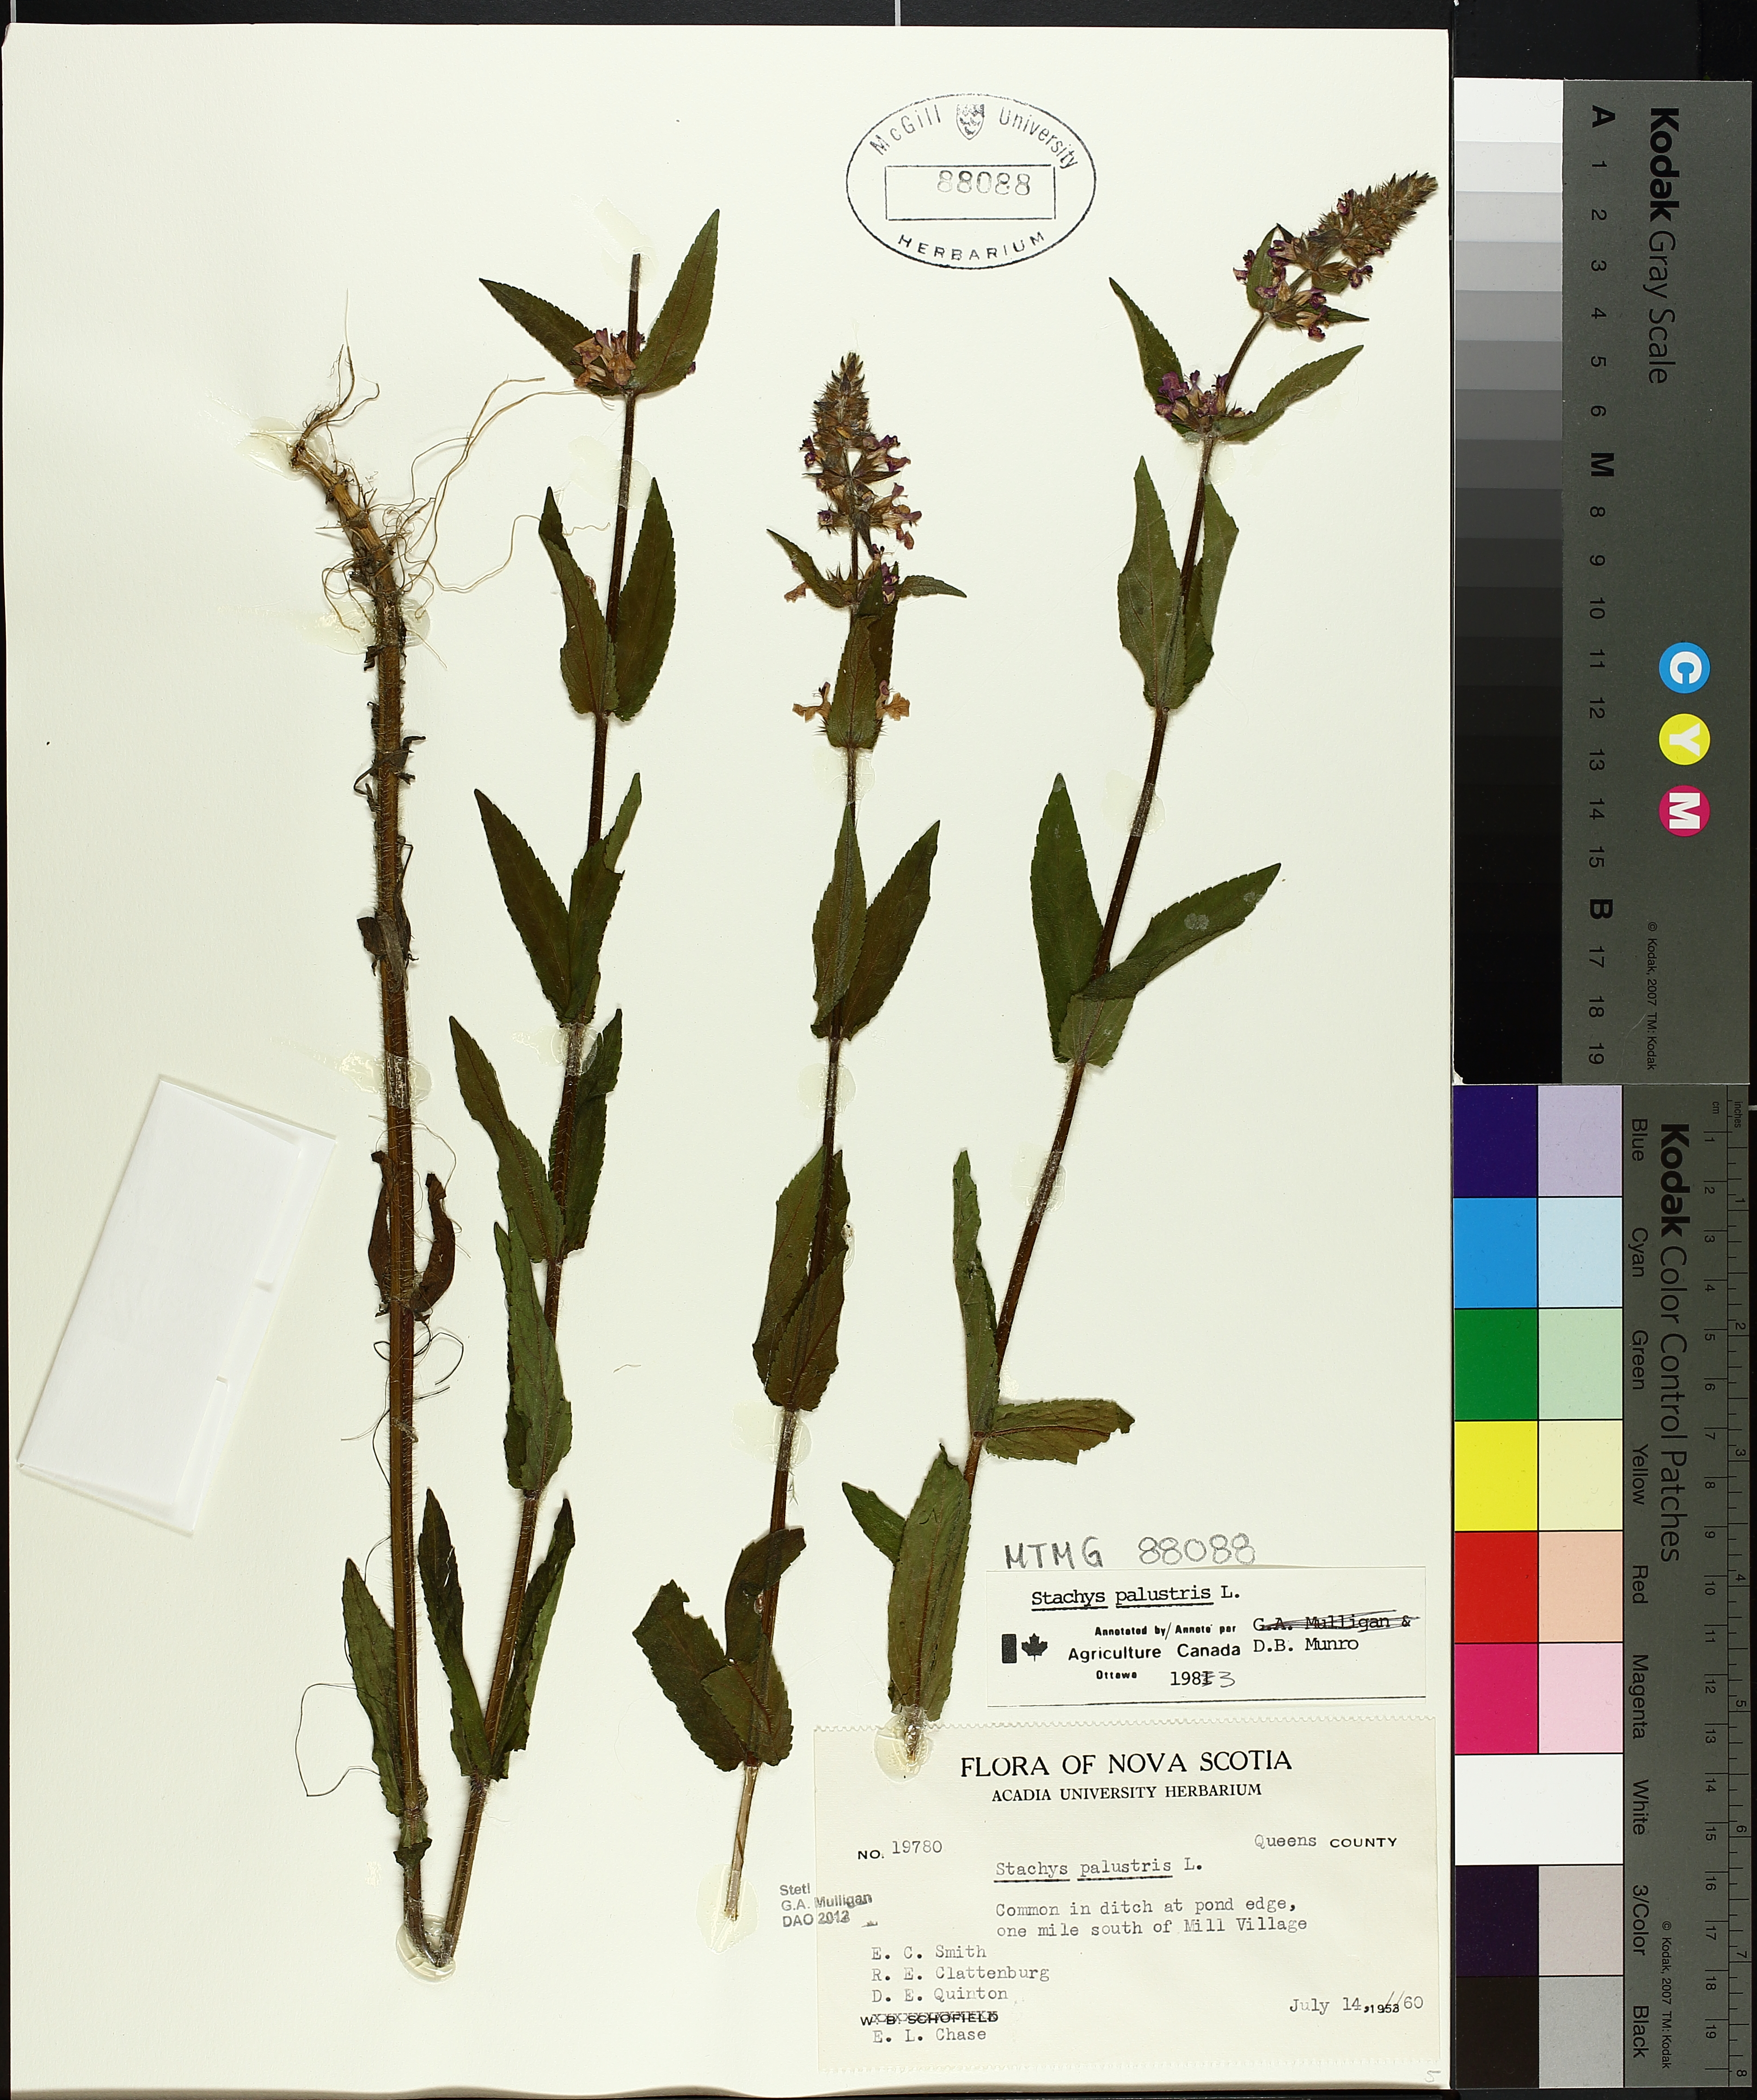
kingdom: Plantae
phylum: Tracheophyta
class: Magnoliopsida
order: Lamiales
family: Lamiaceae
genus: Stachys
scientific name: Stachys palustris
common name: Marsh woundwort
